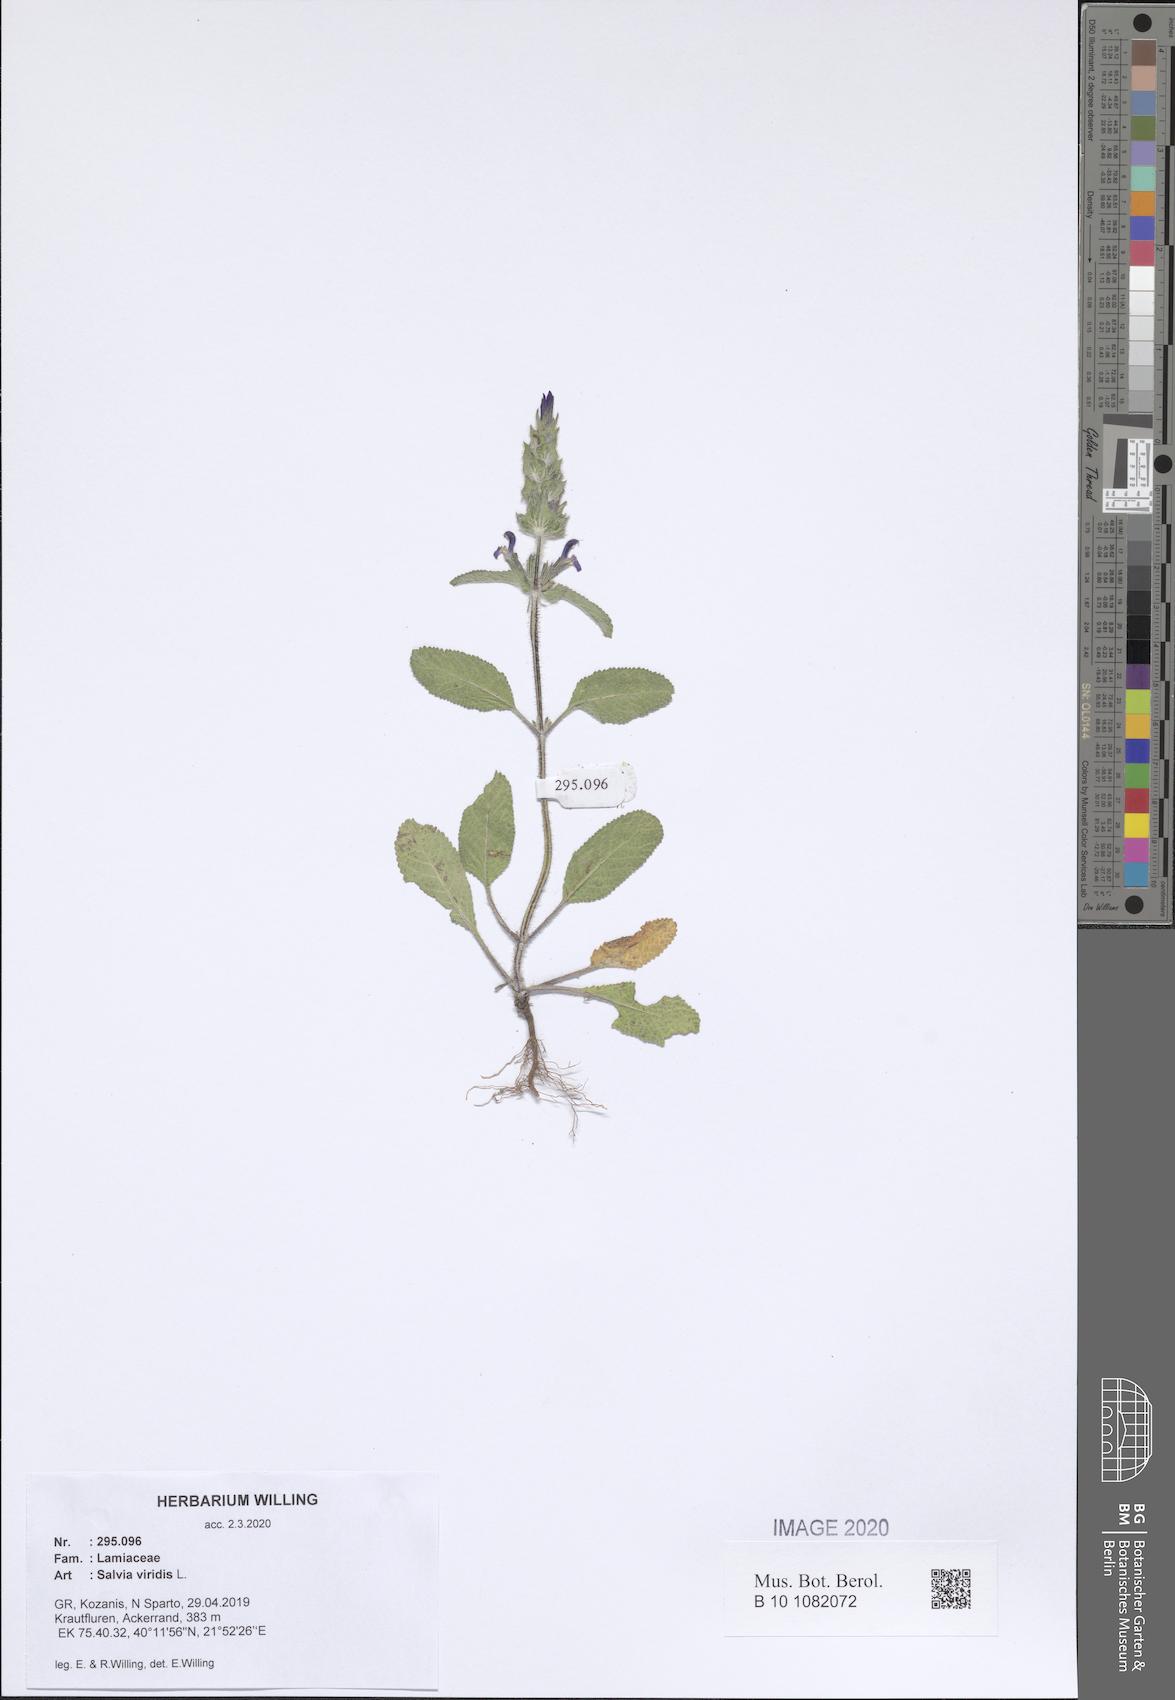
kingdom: Plantae
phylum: Tracheophyta
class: Magnoliopsida
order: Lamiales
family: Lamiaceae
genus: Salvia
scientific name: Salvia viridis
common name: Annual clary
